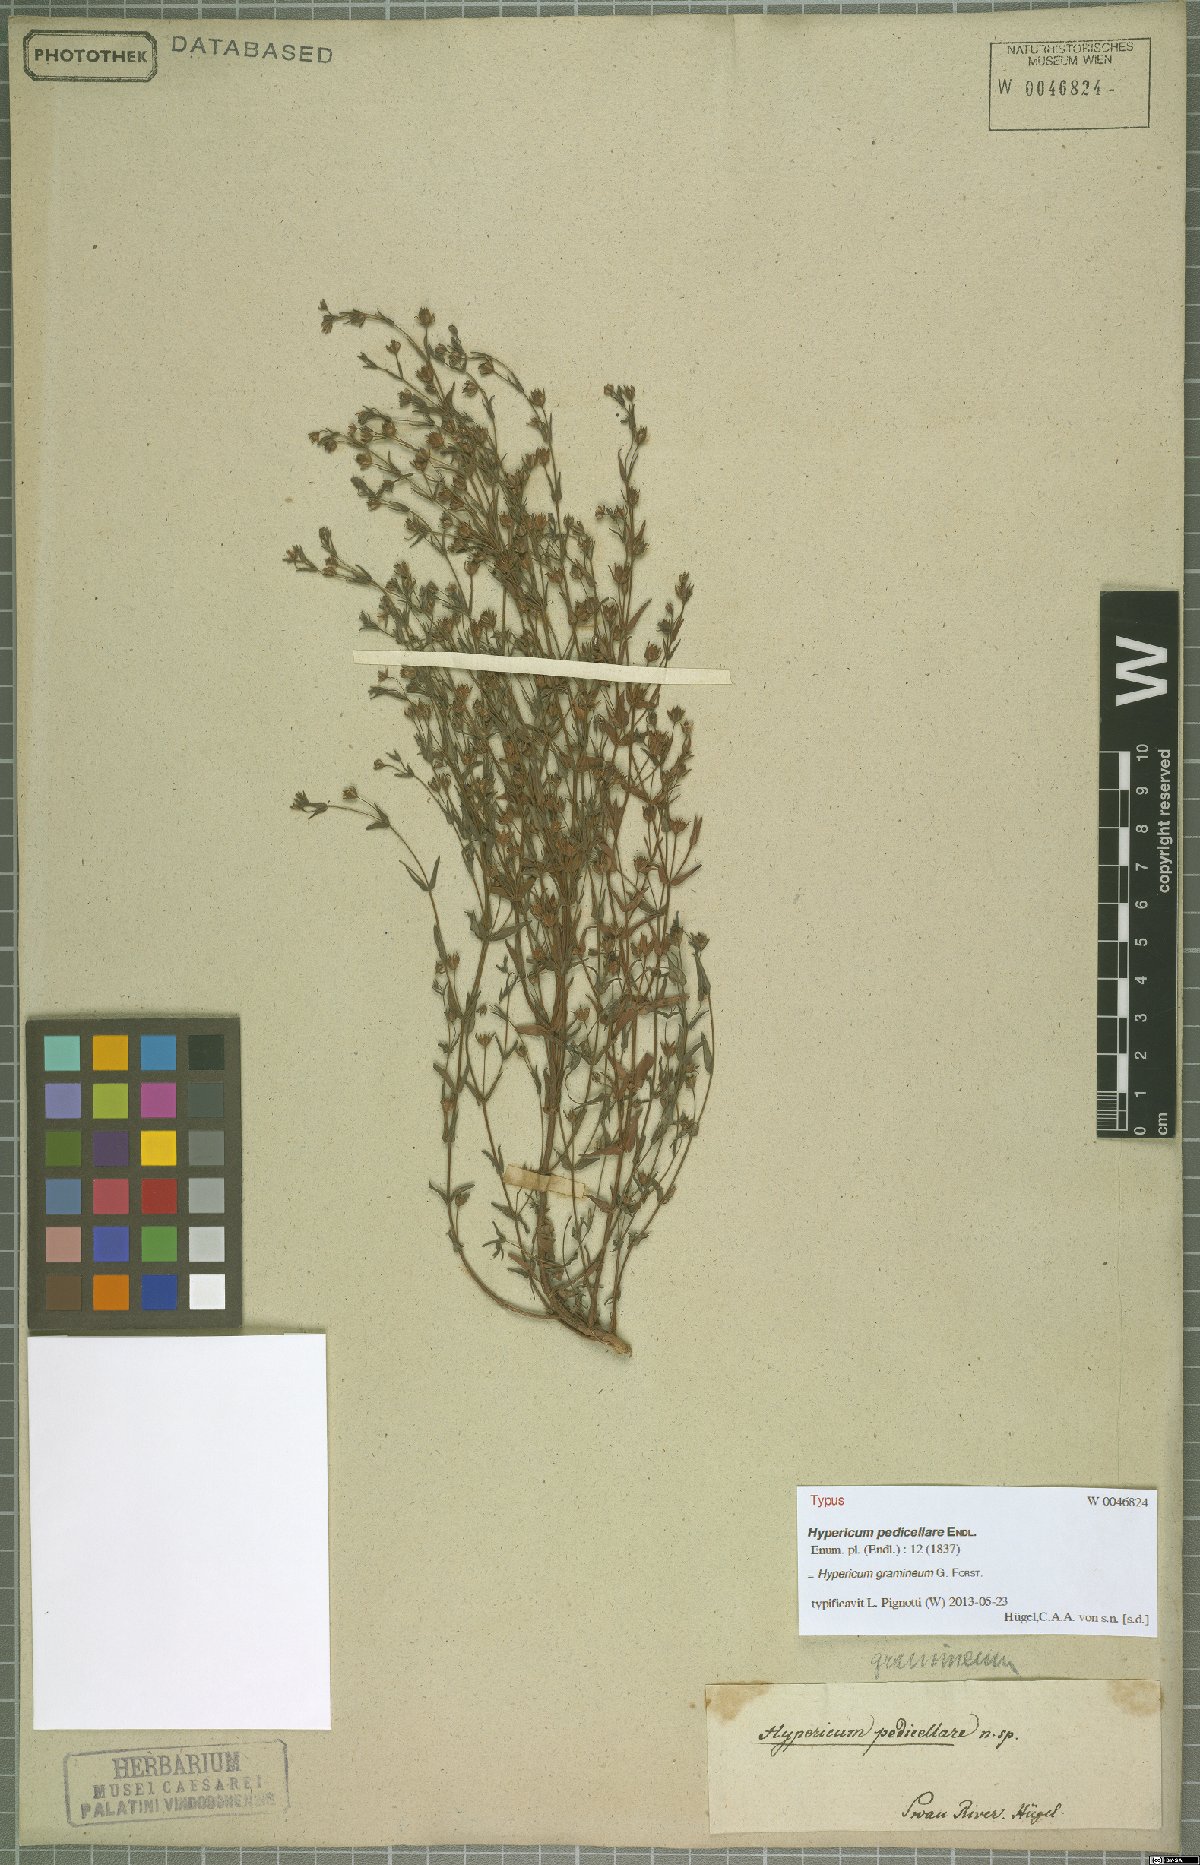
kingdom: Plantae
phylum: Tracheophyta
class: Magnoliopsida
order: Malpighiales
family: Hypericaceae
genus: Hypericum
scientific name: Hypericum gramineum
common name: Grassy st. johnswort
